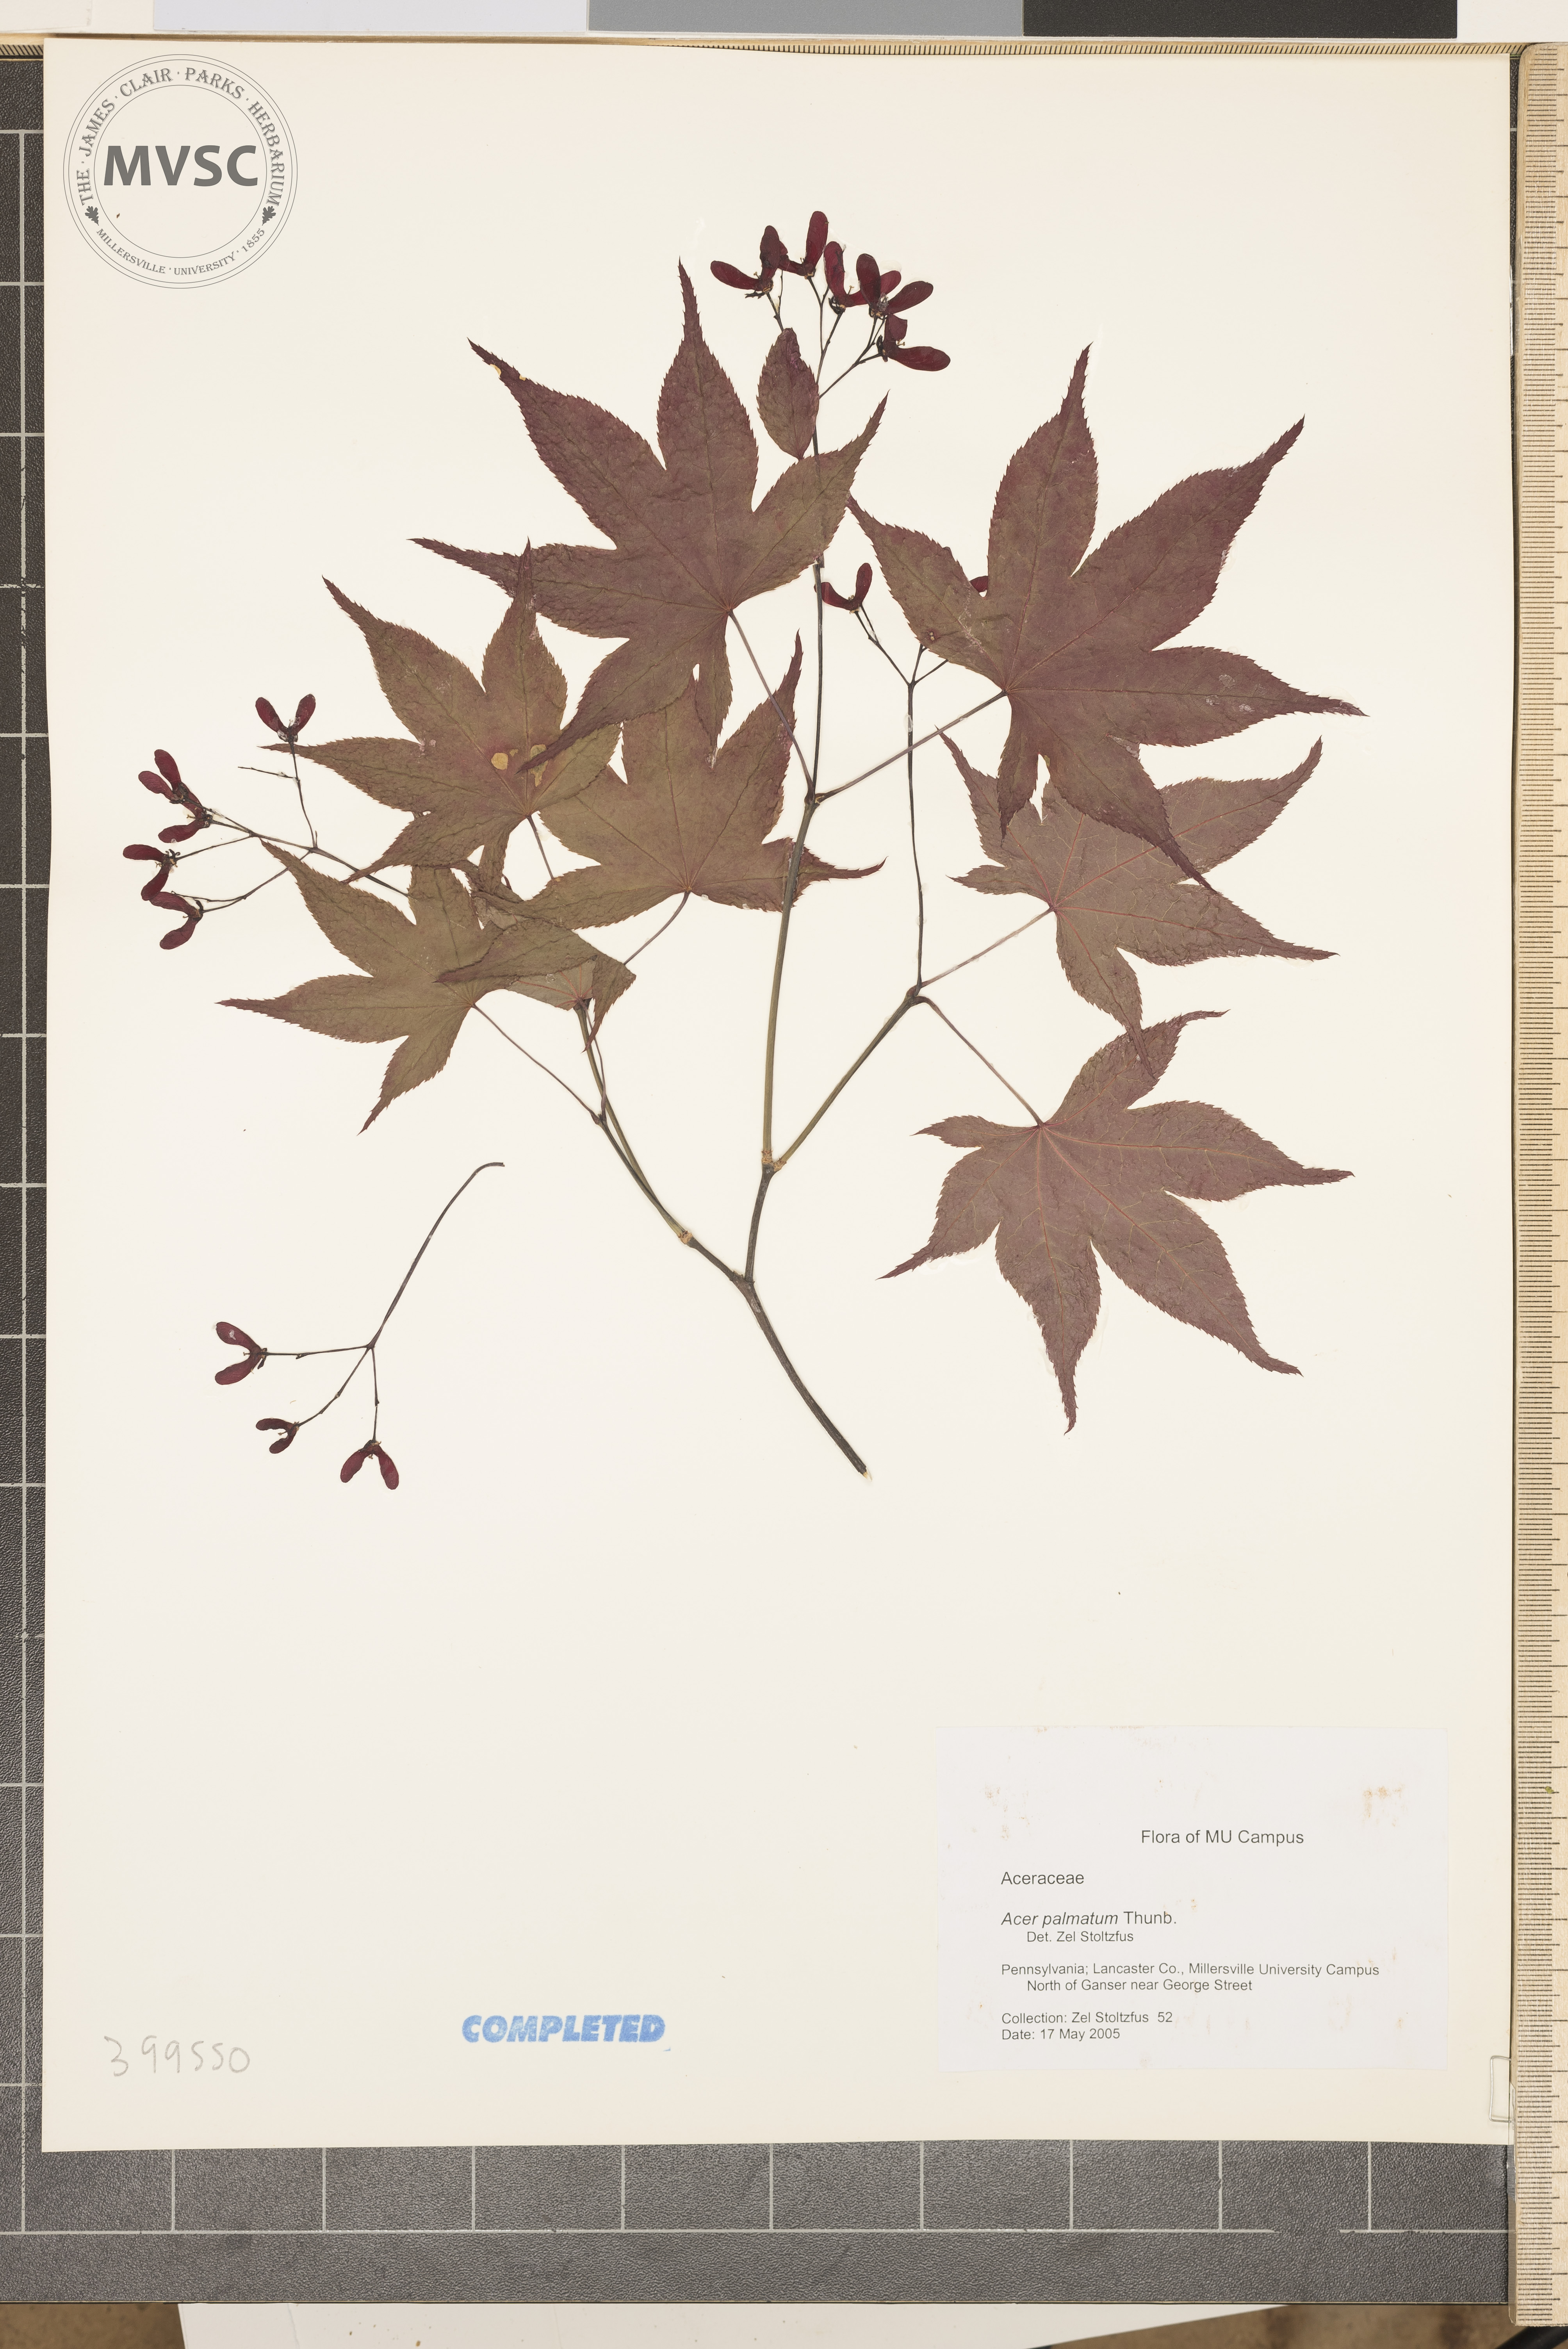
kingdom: Plantae
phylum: Tracheophyta
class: Magnoliopsida
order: Sapindales
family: Sapindaceae
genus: Acer
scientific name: Acer palmatum
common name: Japanese Maple
